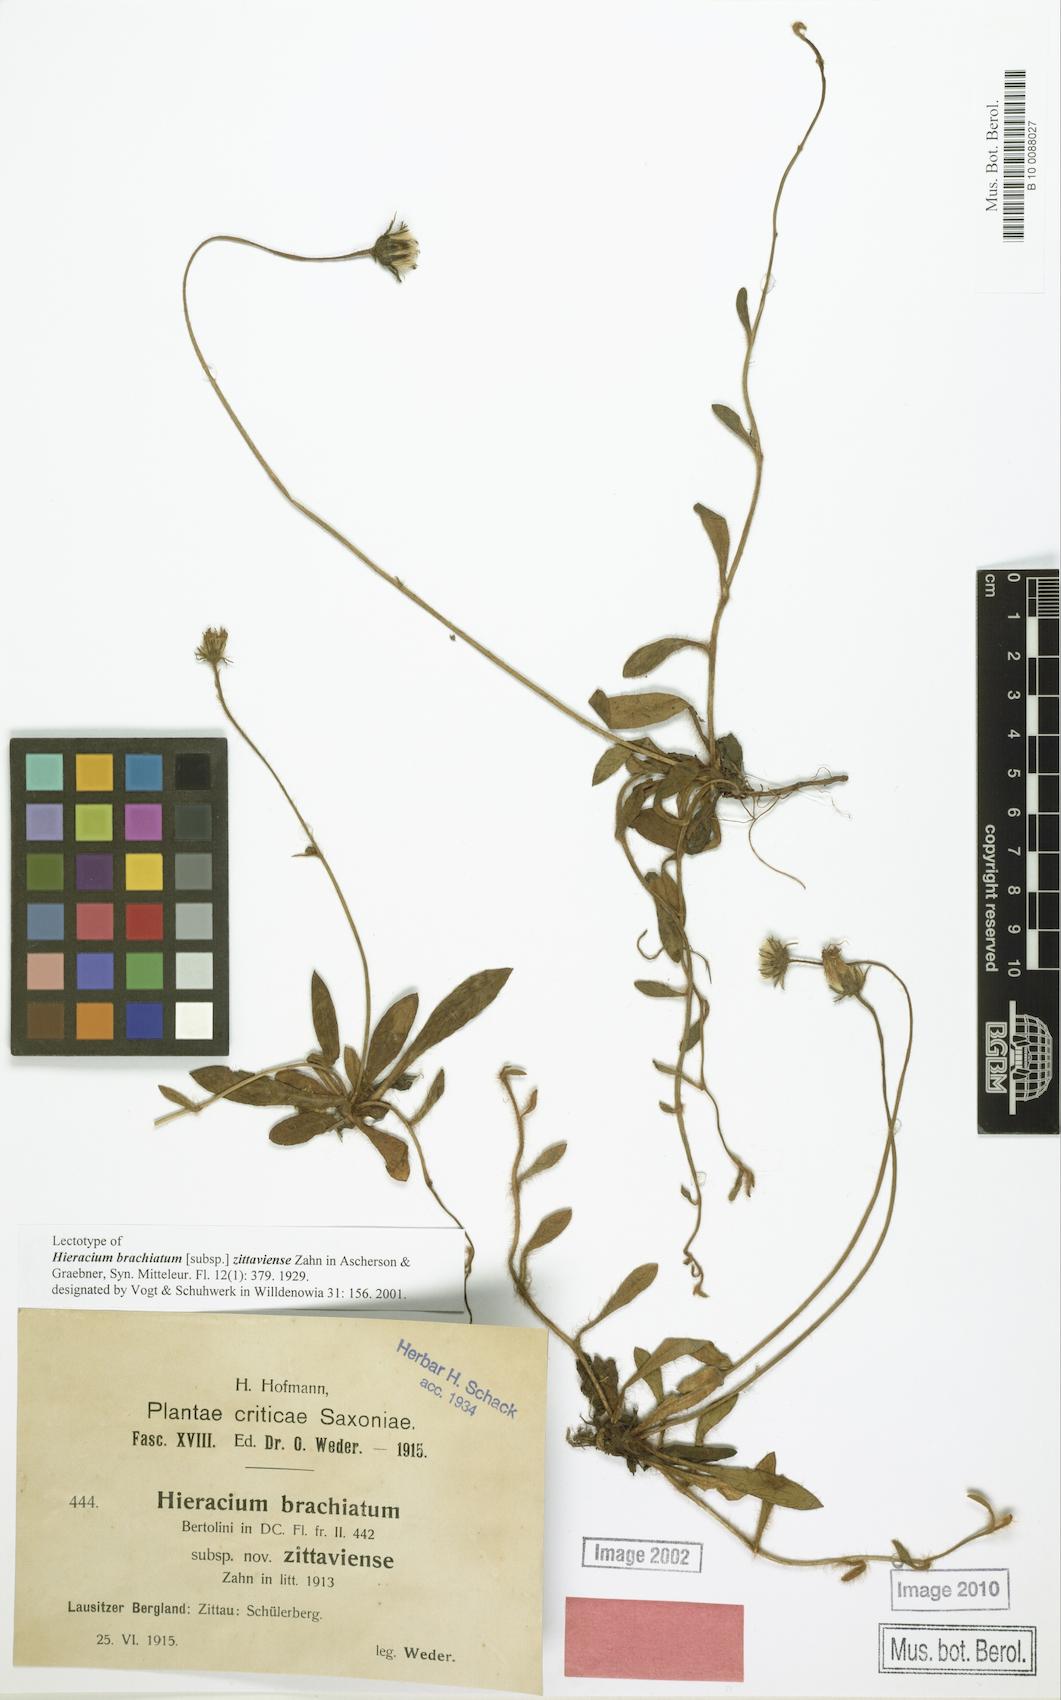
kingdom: Plantae
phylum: Tracheophyta
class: Magnoliopsida
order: Asterales
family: Asteraceae
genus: Pilosella
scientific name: Pilosella acutifolia
